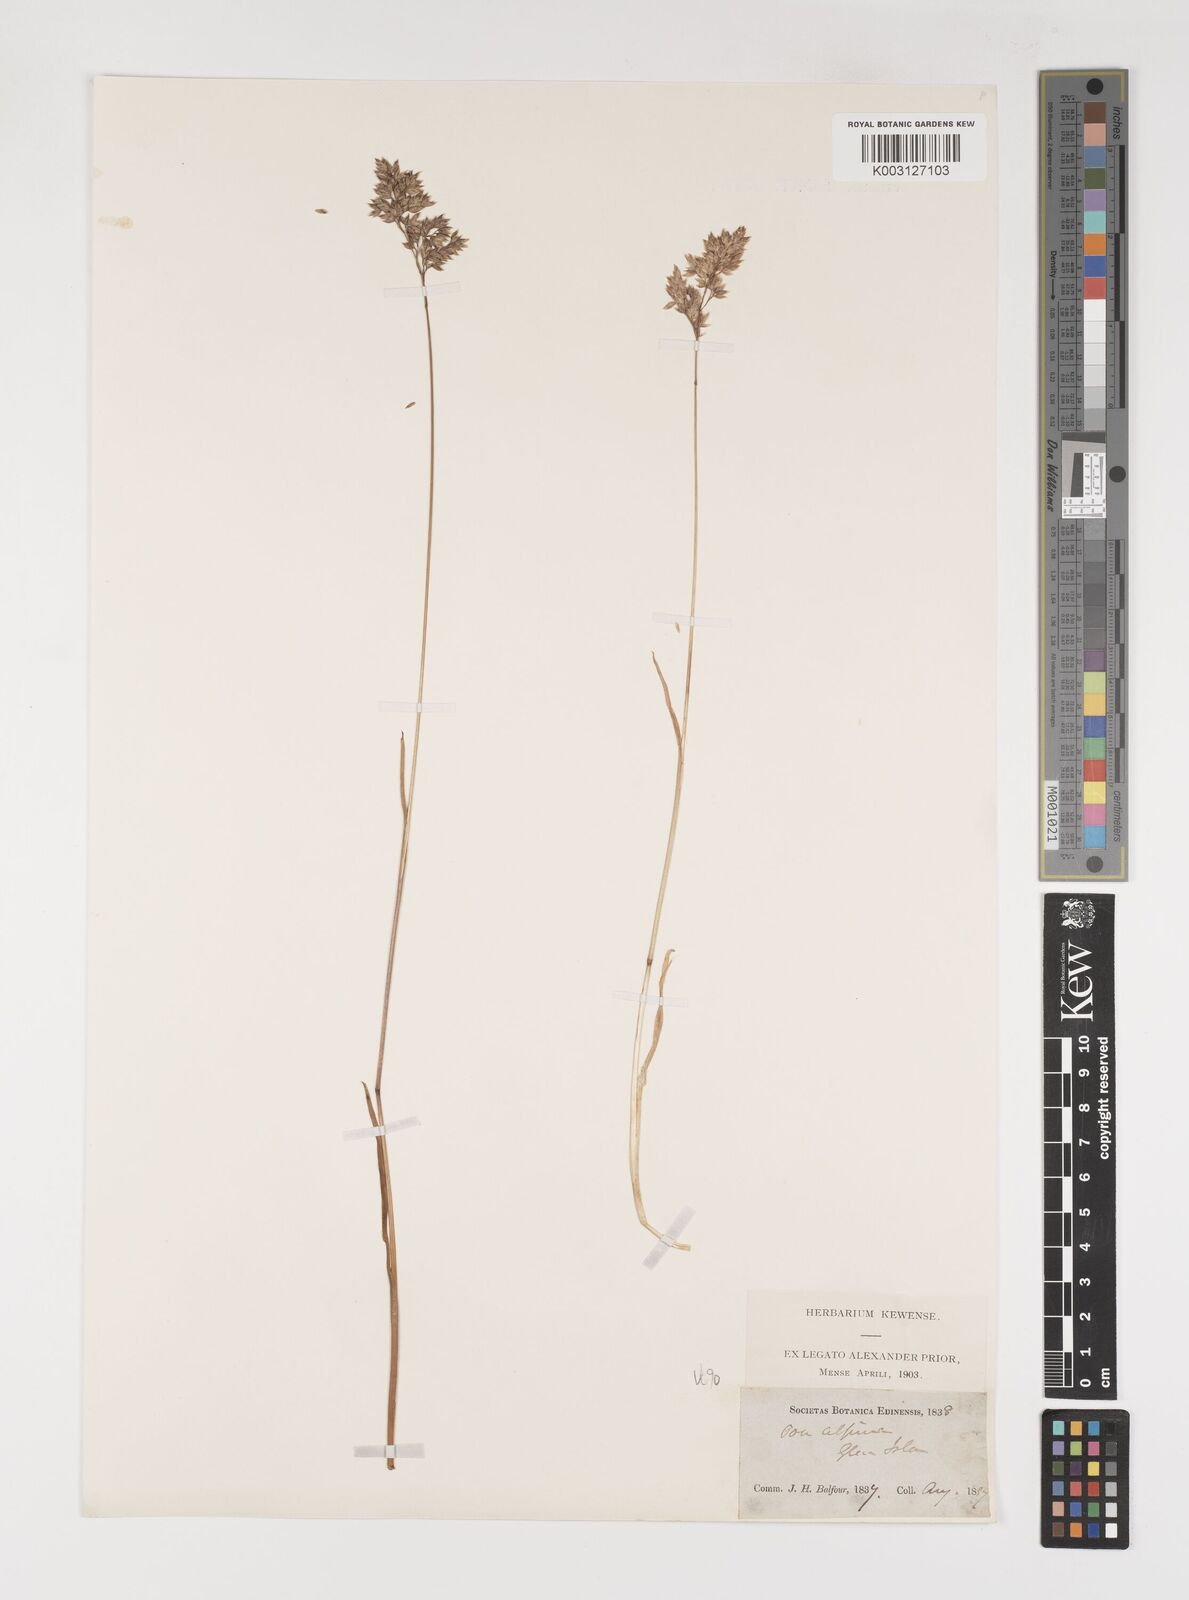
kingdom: Plantae
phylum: Tracheophyta
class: Liliopsida
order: Poales
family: Poaceae
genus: Poa
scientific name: Poa alpina
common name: Alpine bluegrass
